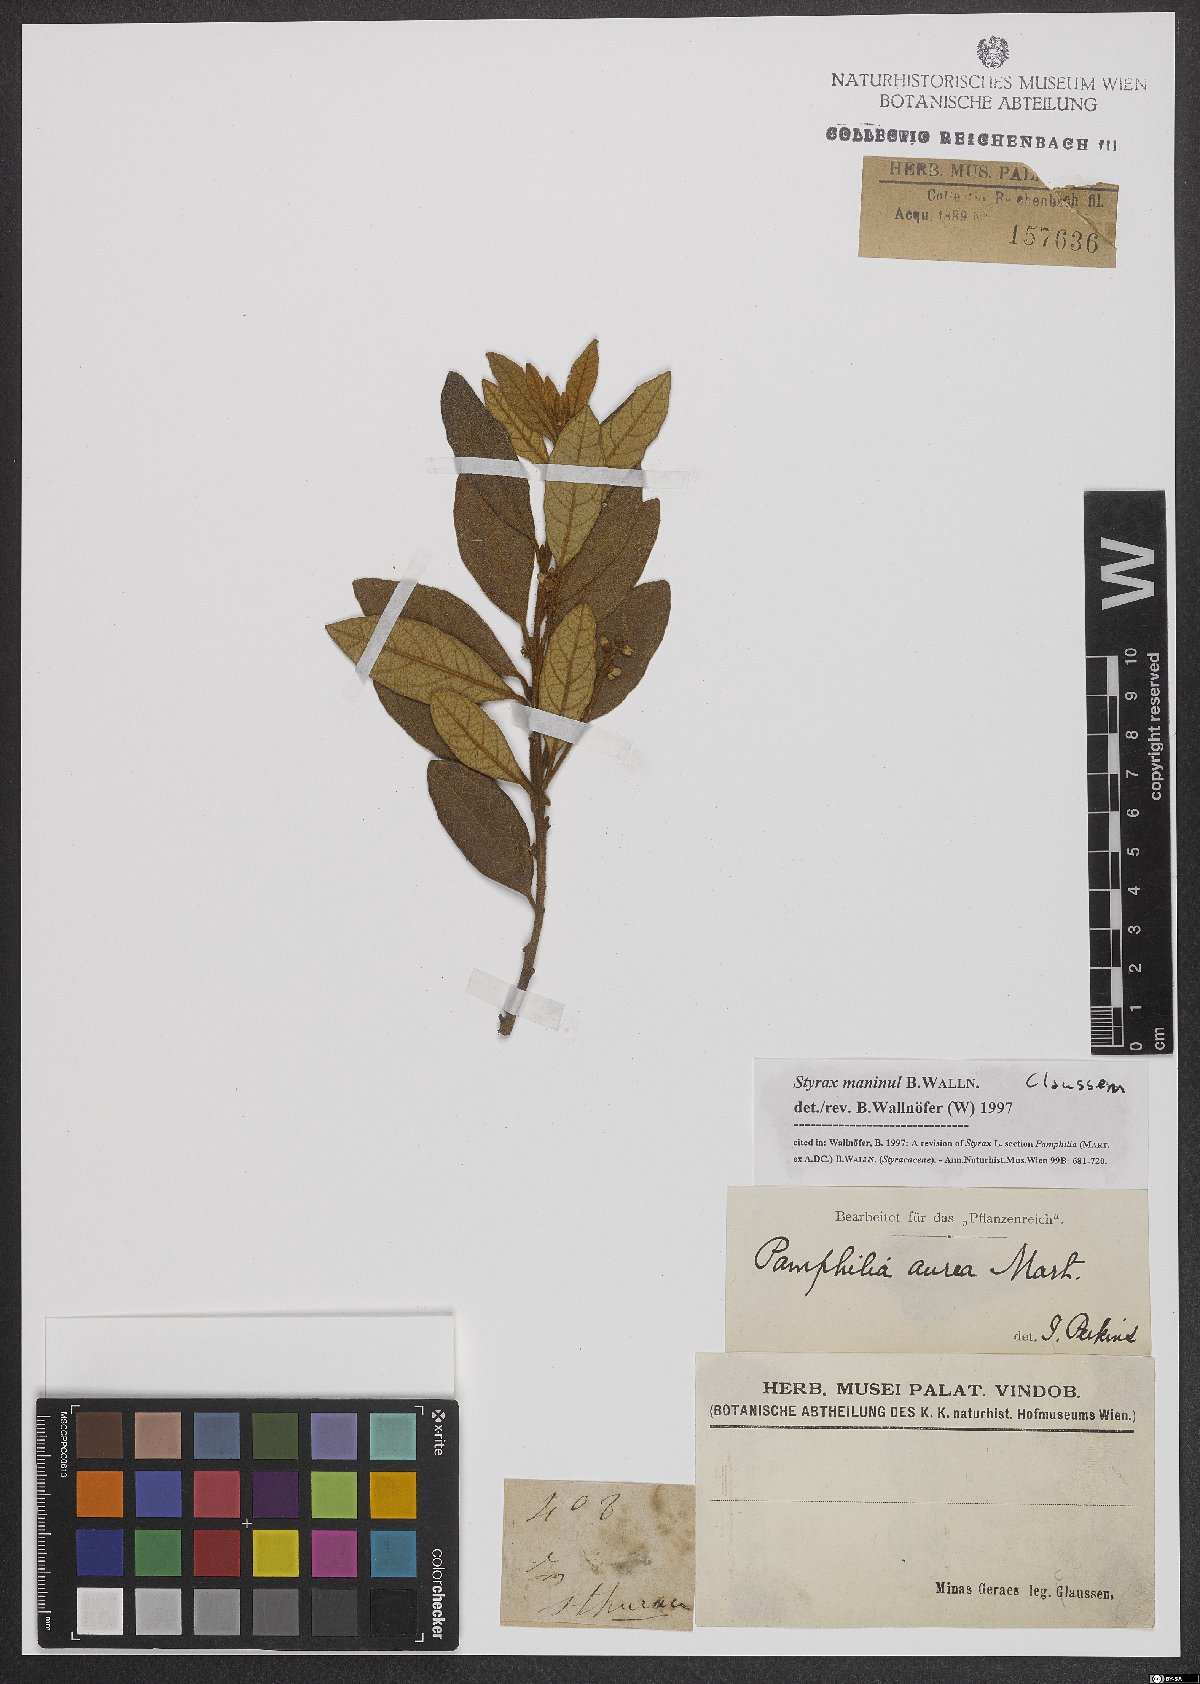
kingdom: Plantae
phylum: Tracheophyta
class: Magnoliopsida
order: Ericales
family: Styracaceae
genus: Styrax
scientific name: Styrax maninul
